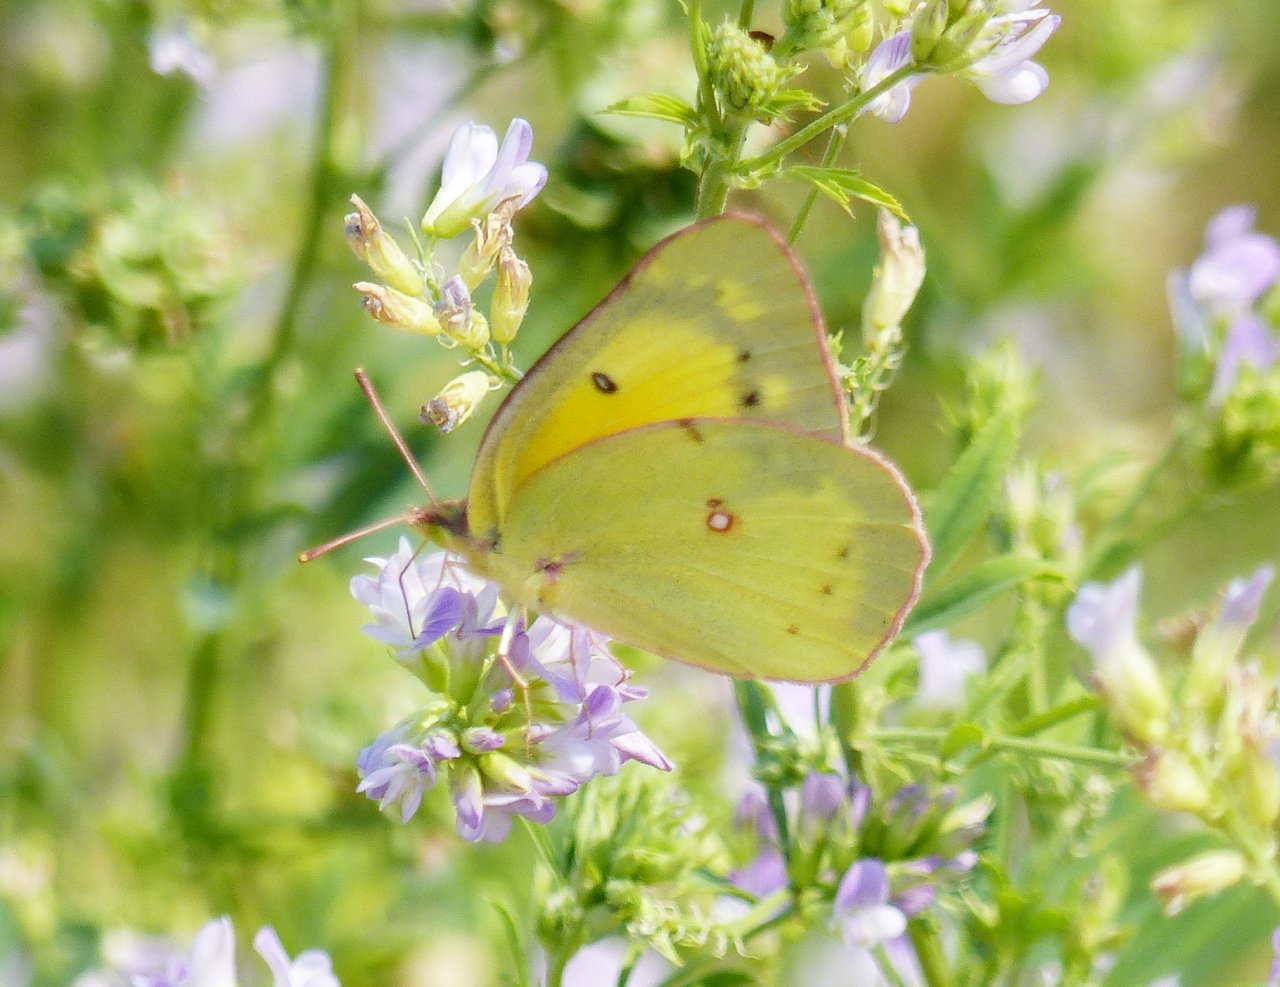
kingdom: Animalia
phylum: Arthropoda
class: Insecta
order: Lepidoptera
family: Pieridae
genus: Colias
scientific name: Colias philodice
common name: Clouded Sulphur
